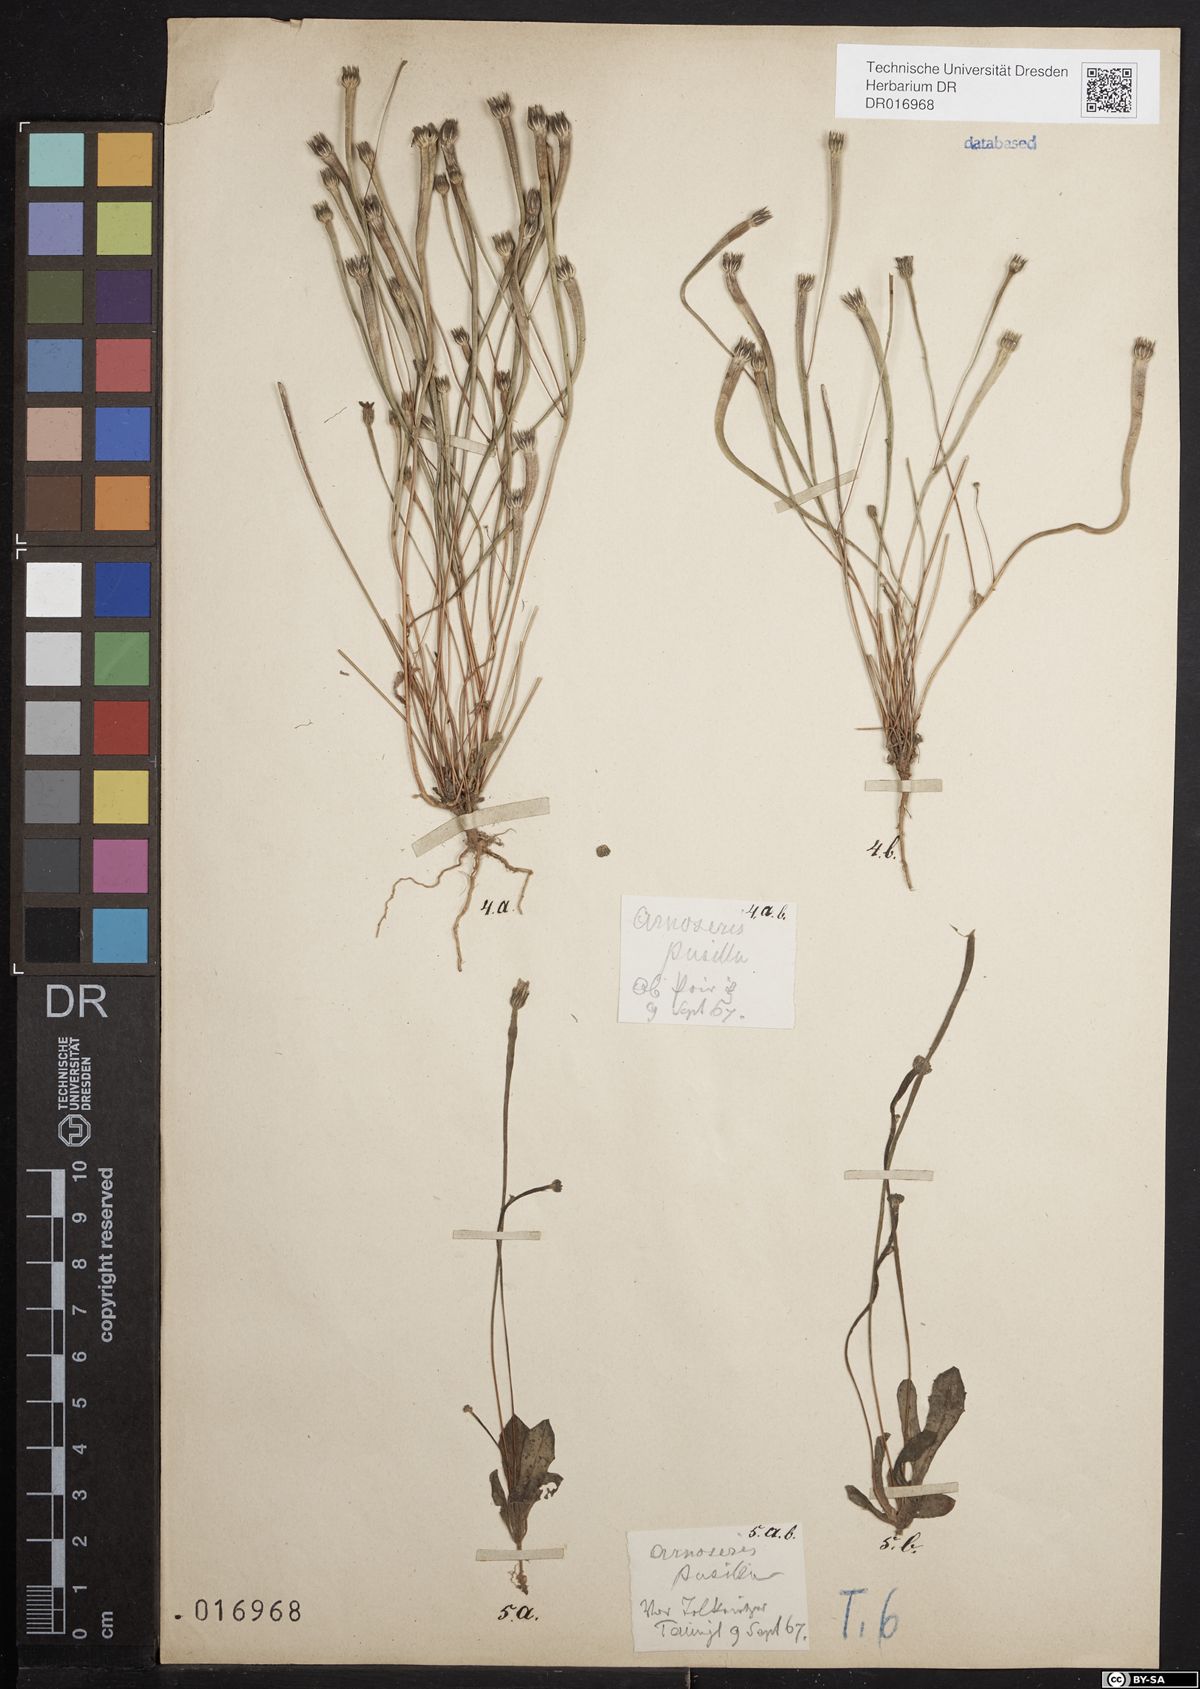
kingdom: Plantae
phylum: Tracheophyta
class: Magnoliopsida
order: Asterales
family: Asteraceae
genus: Arnoseris
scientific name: Arnoseris minima
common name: Lamb's succory
